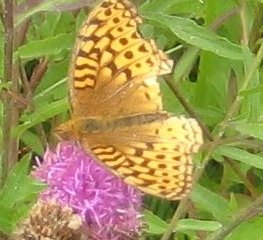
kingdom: Animalia
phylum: Arthropoda
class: Insecta
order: Lepidoptera
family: Nymphalidae
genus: Speyeria
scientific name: Speyeria cybele
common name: Great Spangled Fritillary
